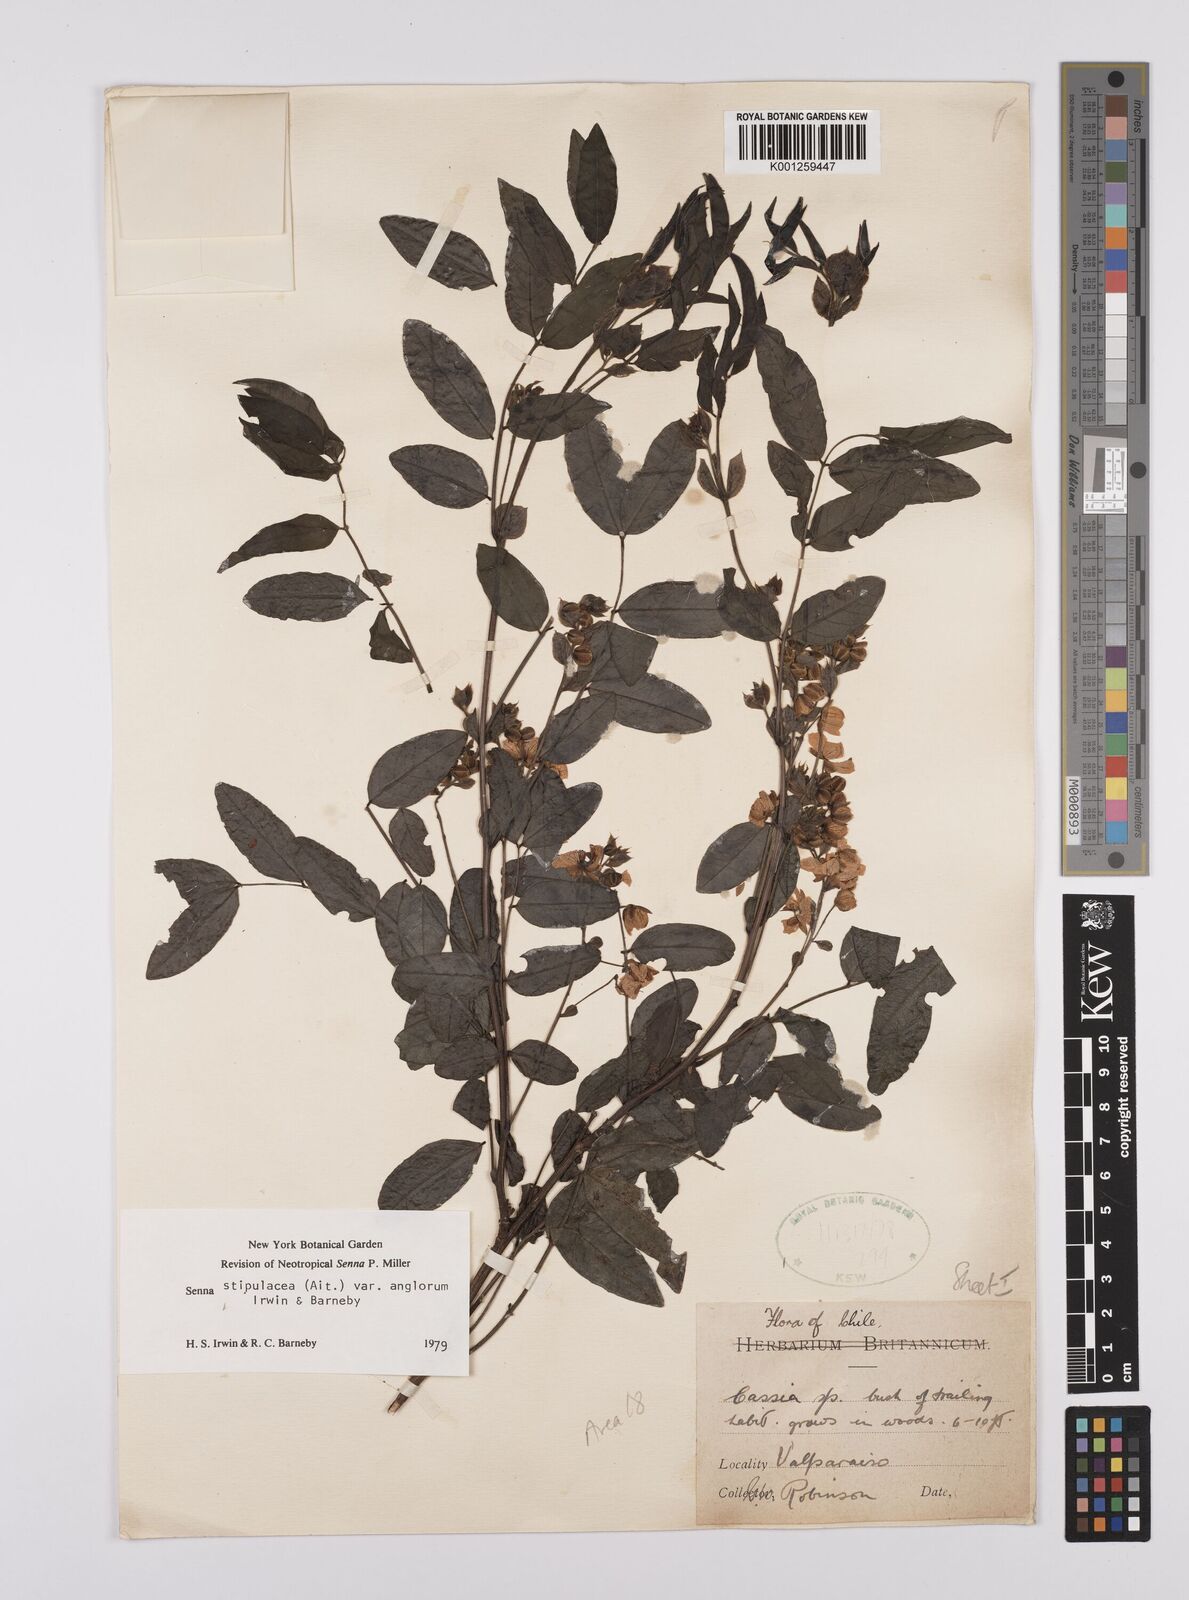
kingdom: Plantae
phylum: Tracheophyta
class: Magnoliopsida
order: Fabales
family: Fabaceae
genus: Senna
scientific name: Senna stipulacea
